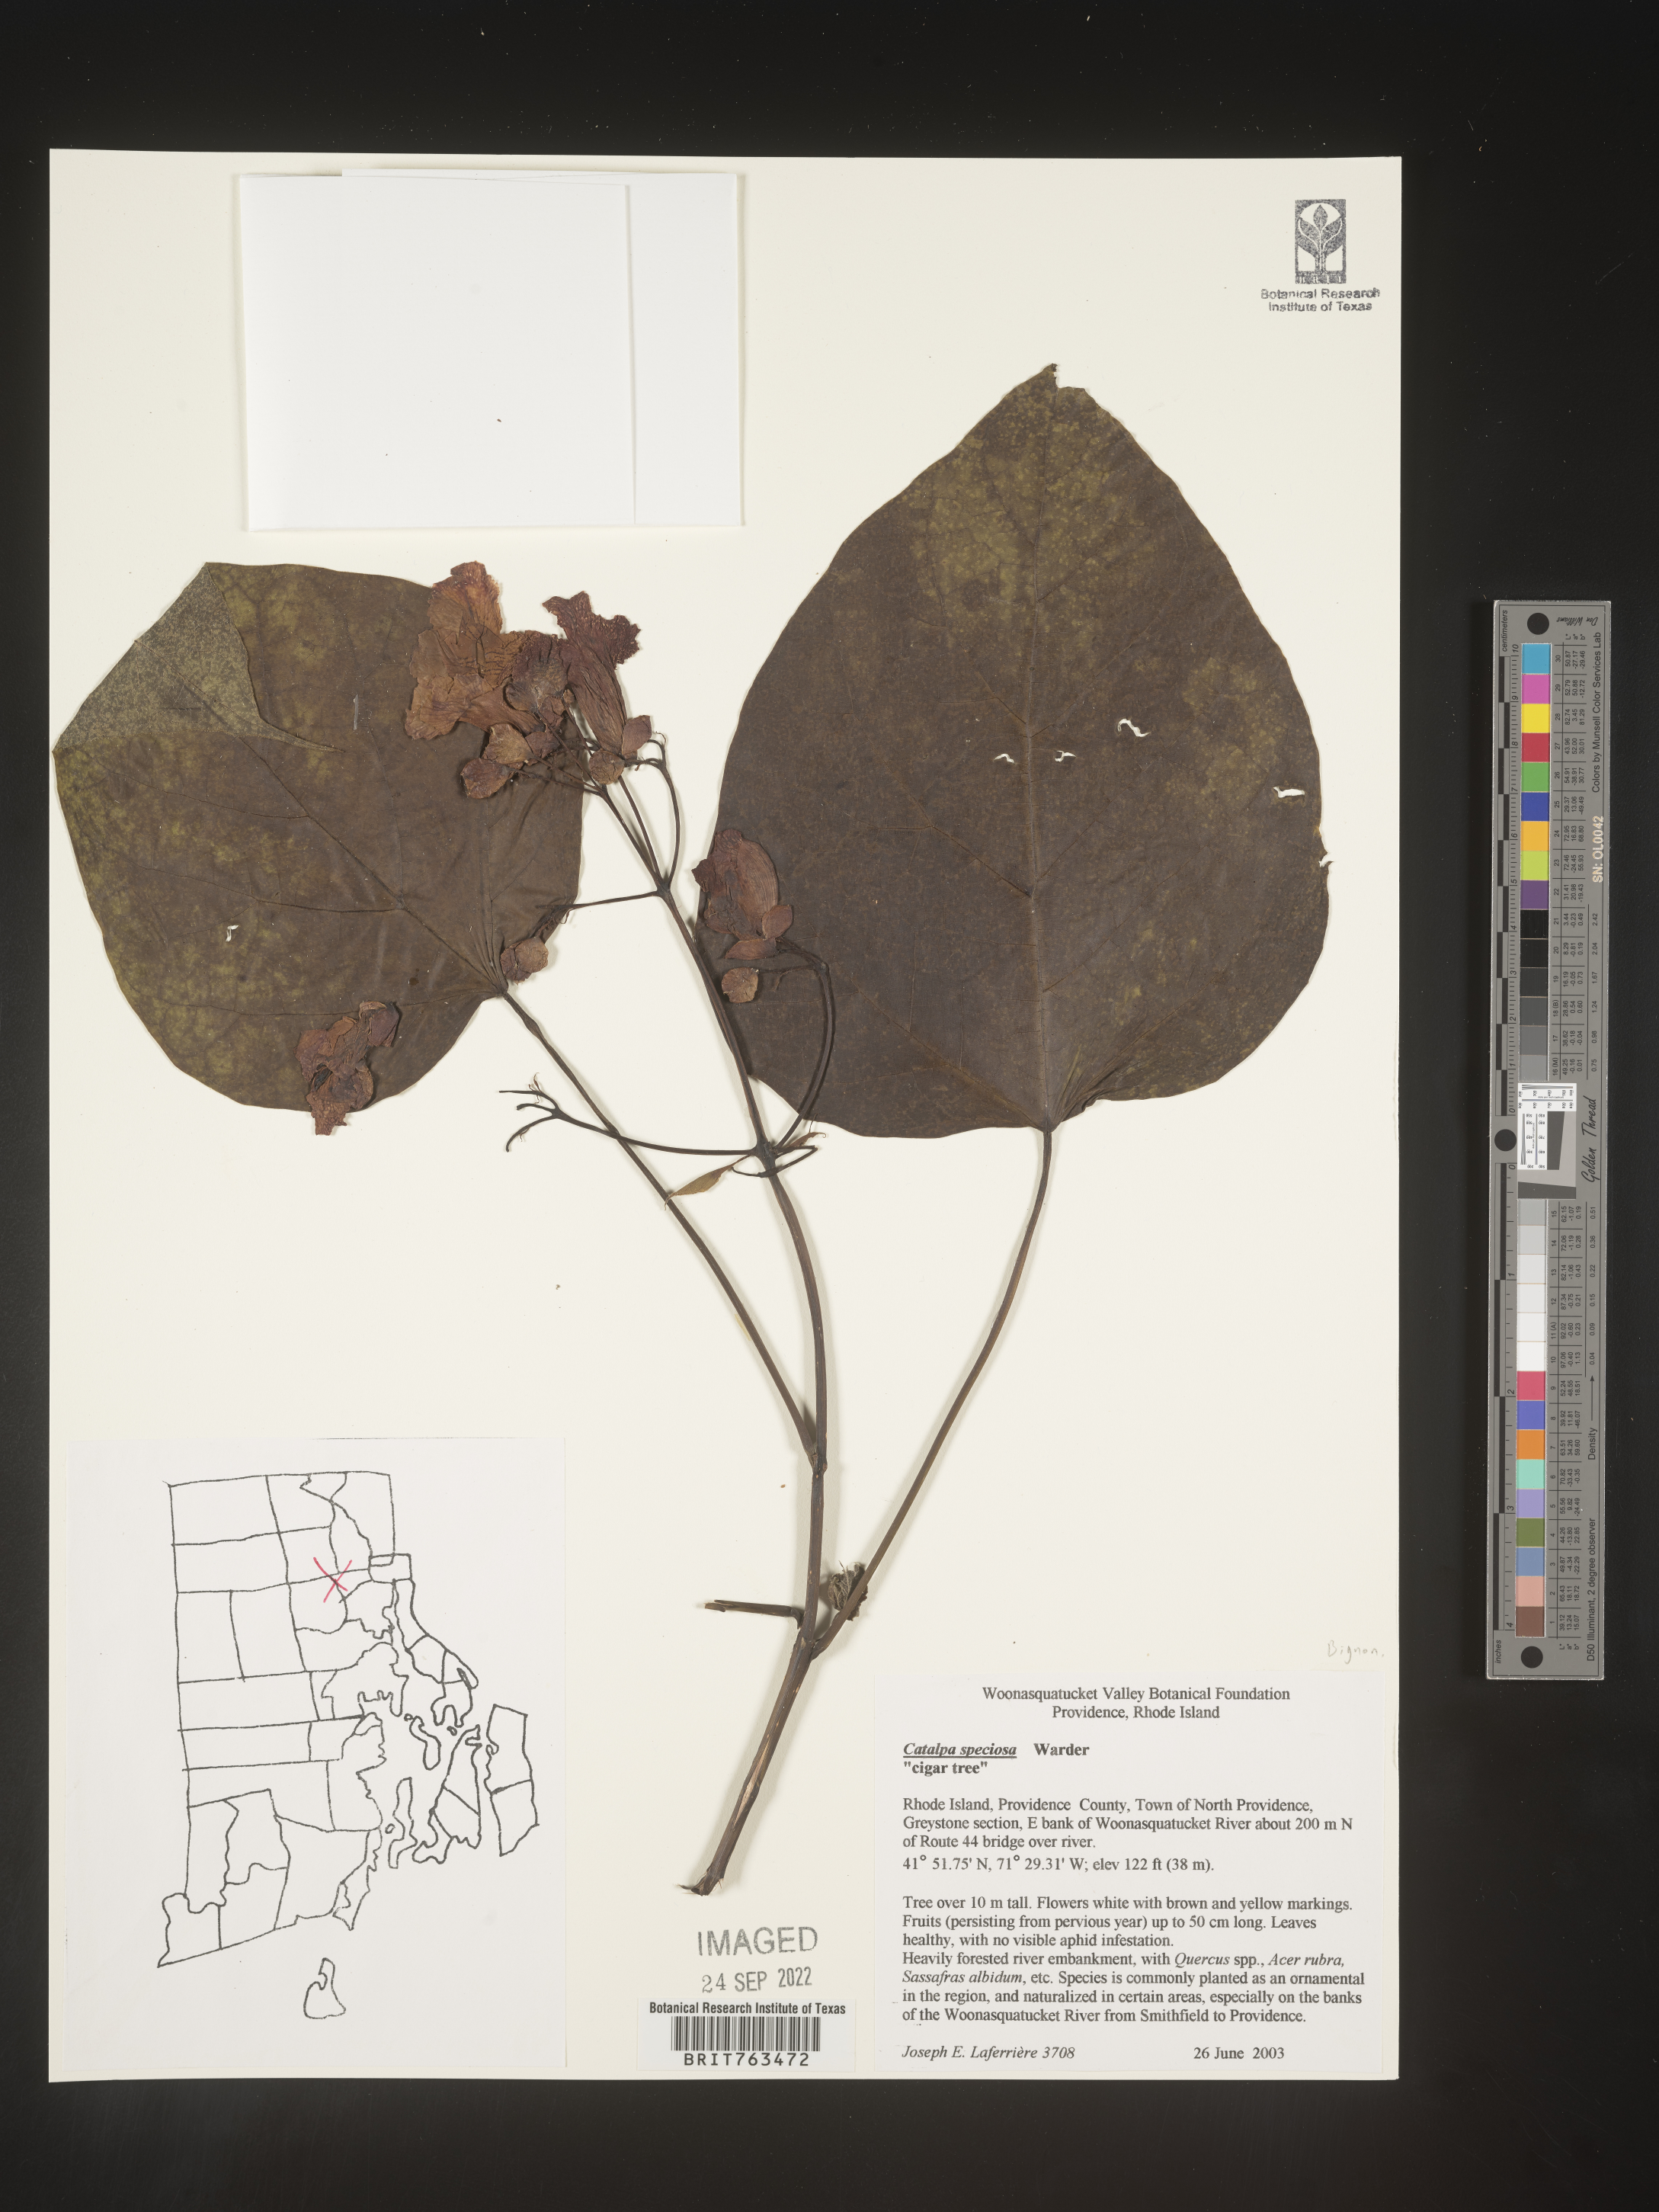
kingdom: Plantae
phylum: Tracheophyta
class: Magnoliopsida
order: Lamiales
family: Bignoniaceae
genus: Catalpa
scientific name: Catalpa speciosa
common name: Northern catalpa
